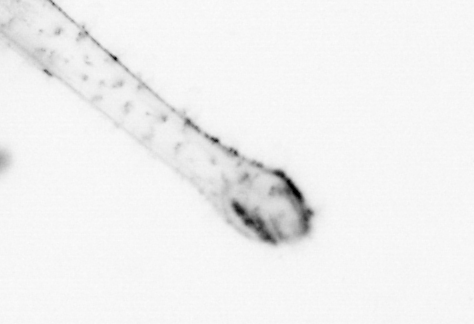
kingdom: Animalia
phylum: Chaetognatha
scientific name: Chaetognatha
